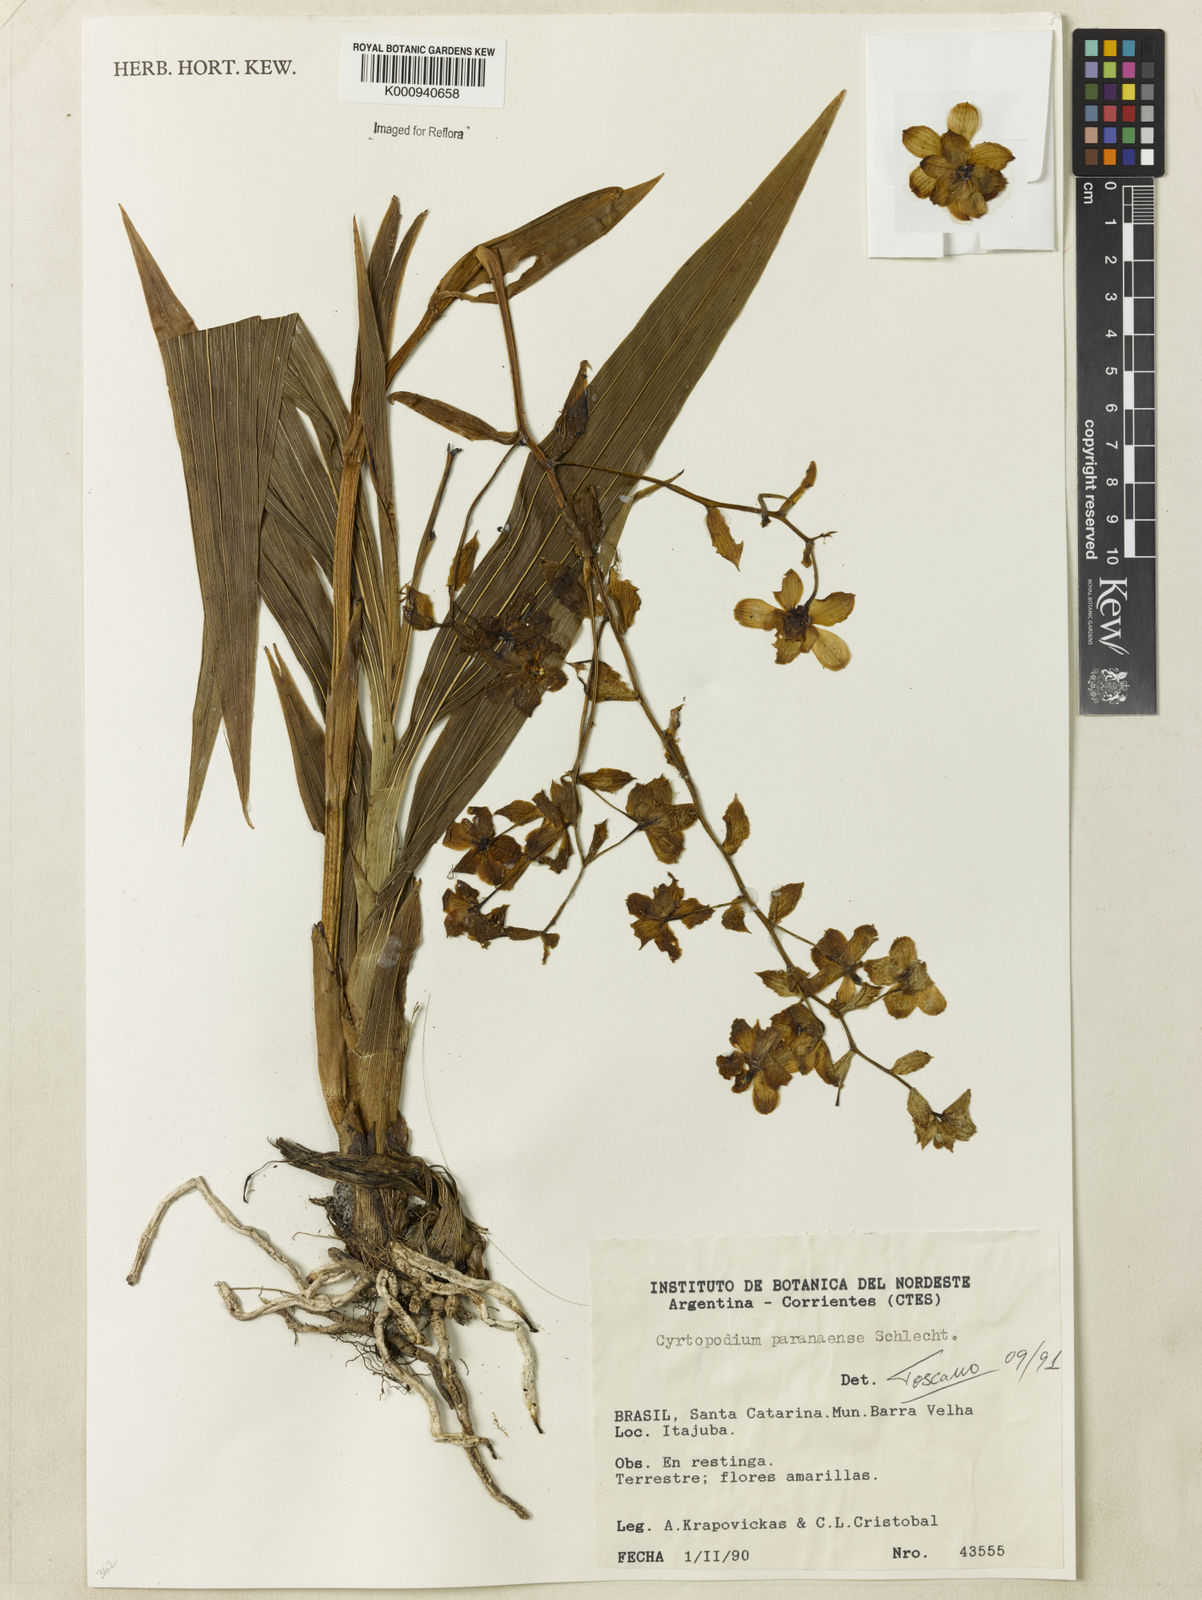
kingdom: Plantae
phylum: Tracheophyta
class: Liliopsida
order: Asparagales
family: Orchidaceae
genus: Cyrtopodium
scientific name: Cyrtopodium flavum
